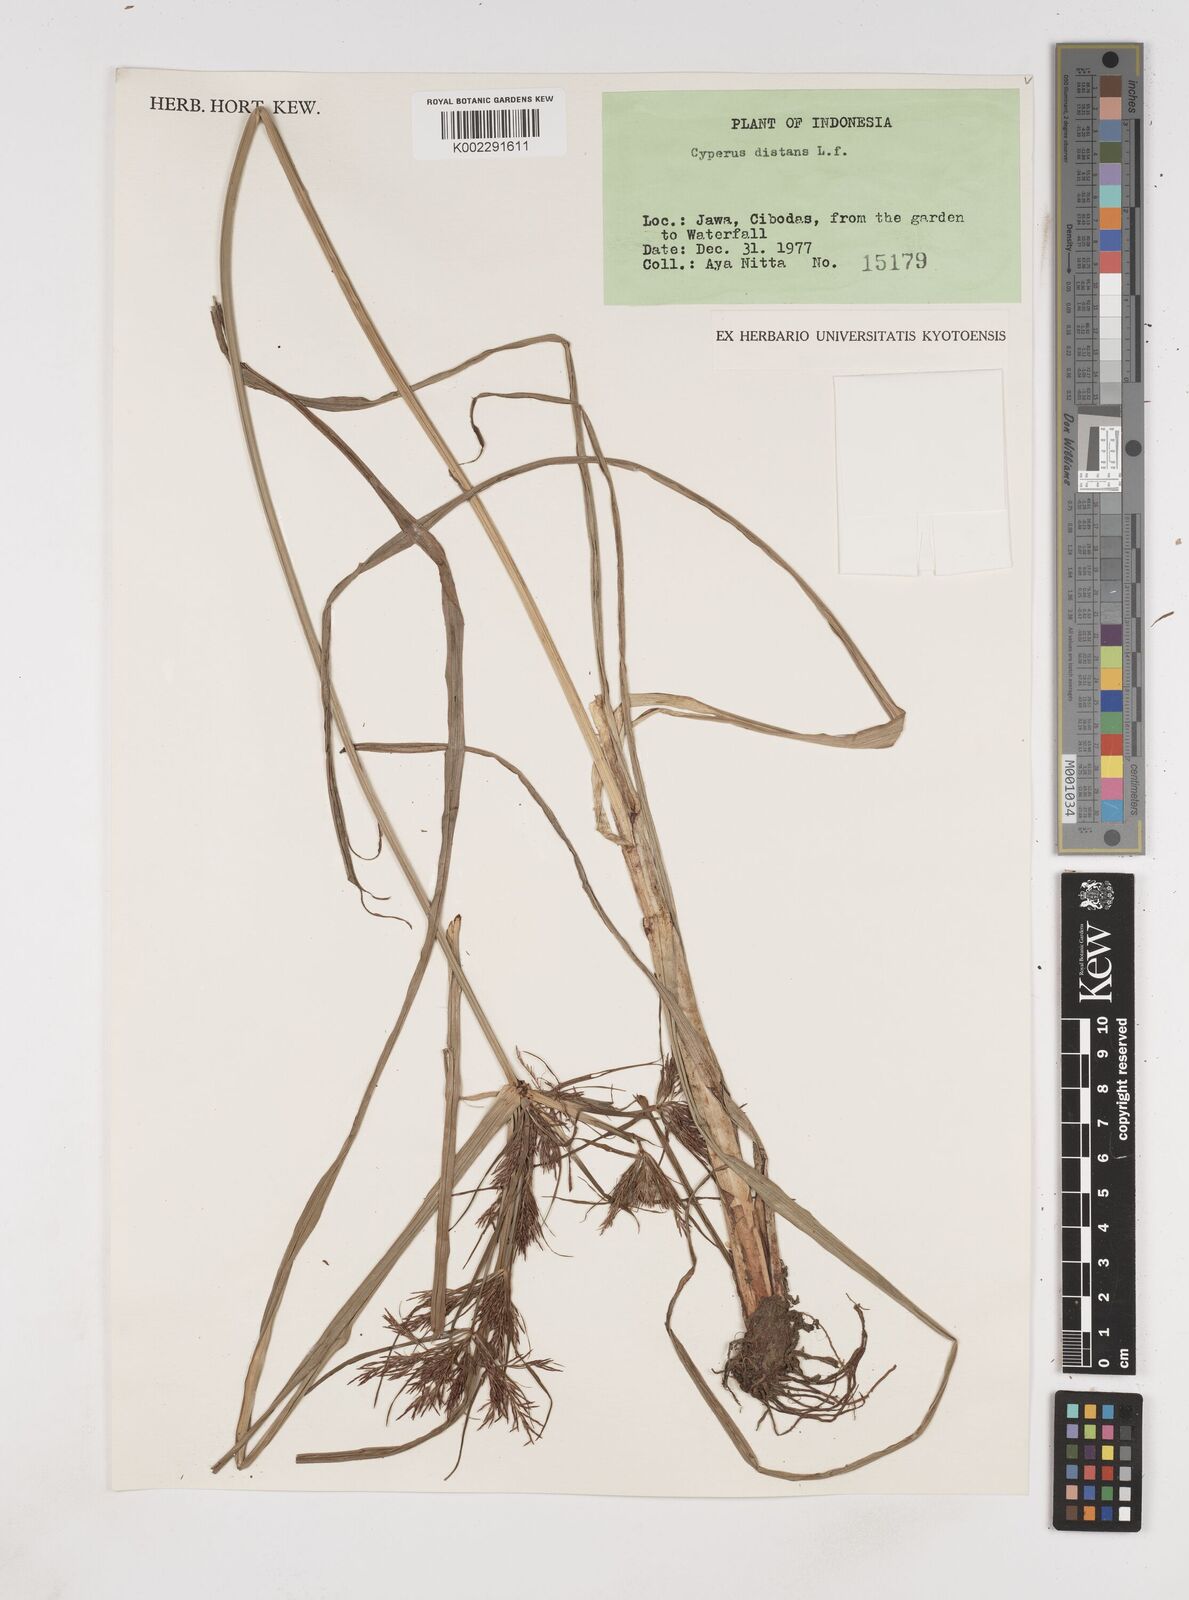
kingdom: Plantae
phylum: Tracheophyta
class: Liliopsida
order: Poales
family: Cyperaceae
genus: Cyperus
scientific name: Cyperus distans
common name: Slender cyperus
